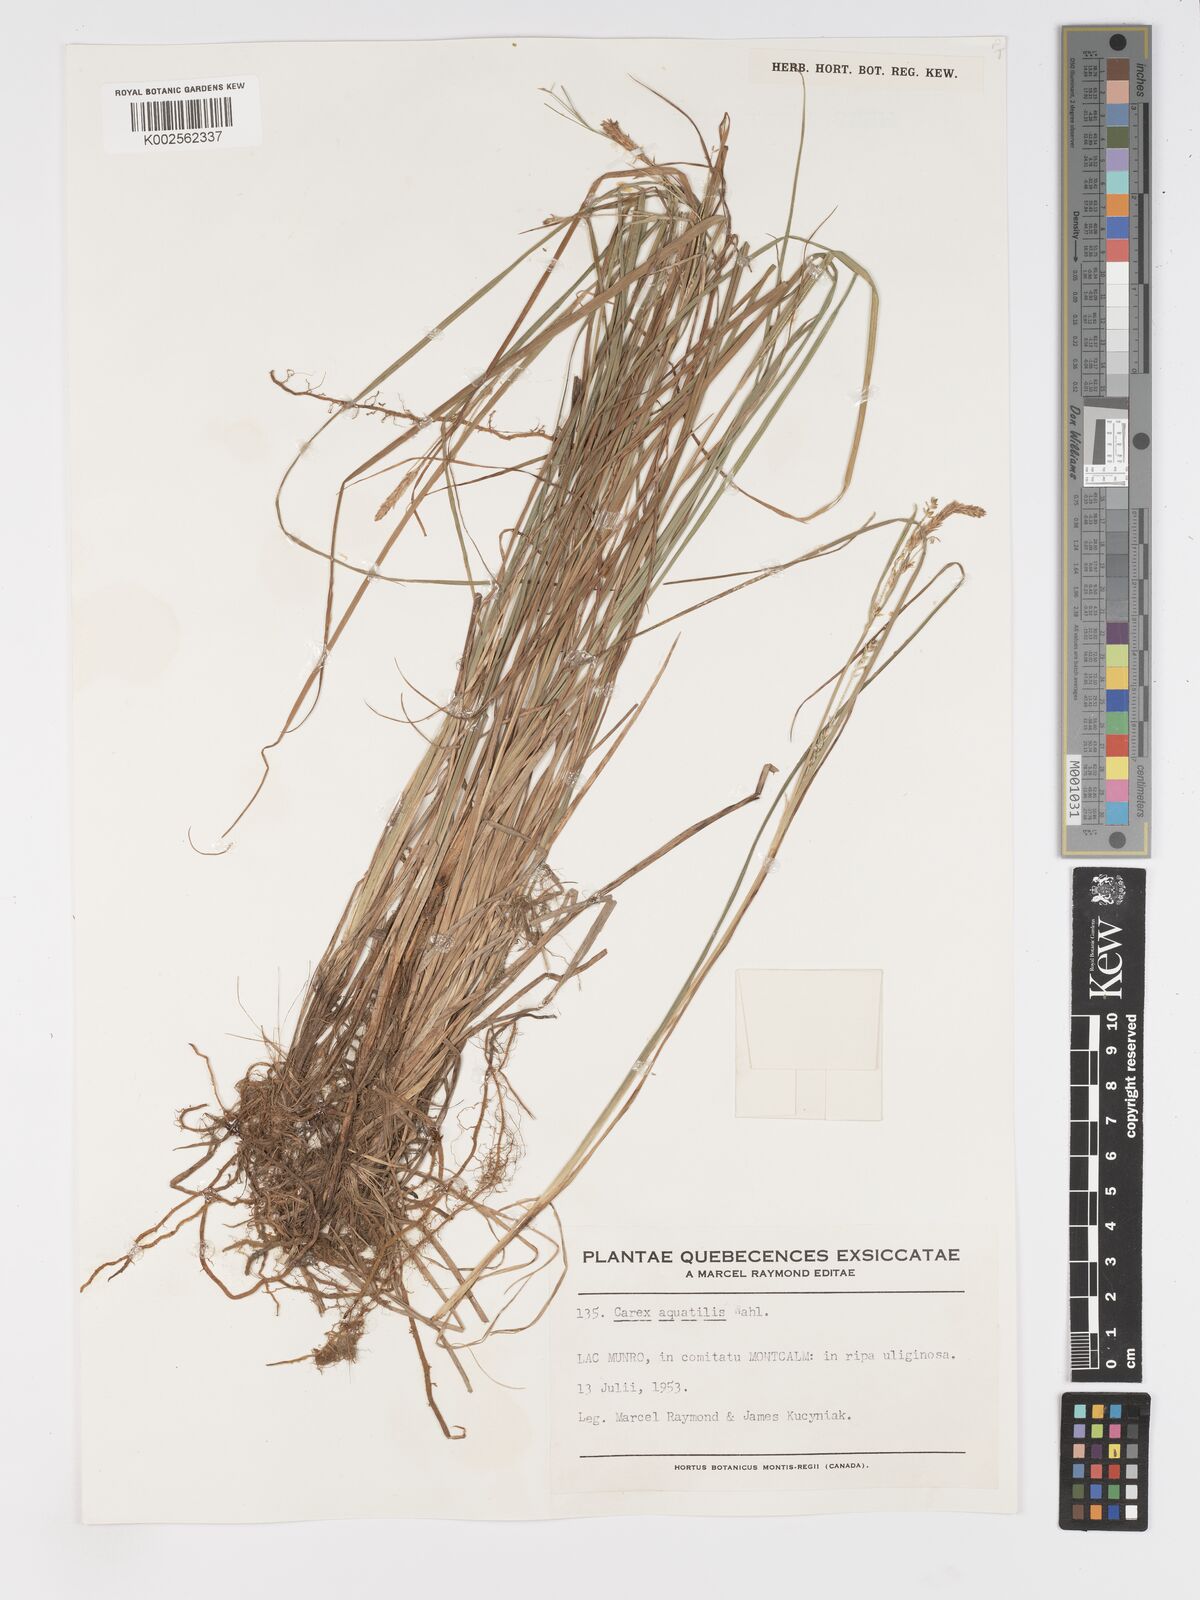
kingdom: Plantae
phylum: Tracheophyta
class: Liliopsida
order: Poales
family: Cyperaceae
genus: Carex
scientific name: Carex aquatilis
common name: Water sedge
